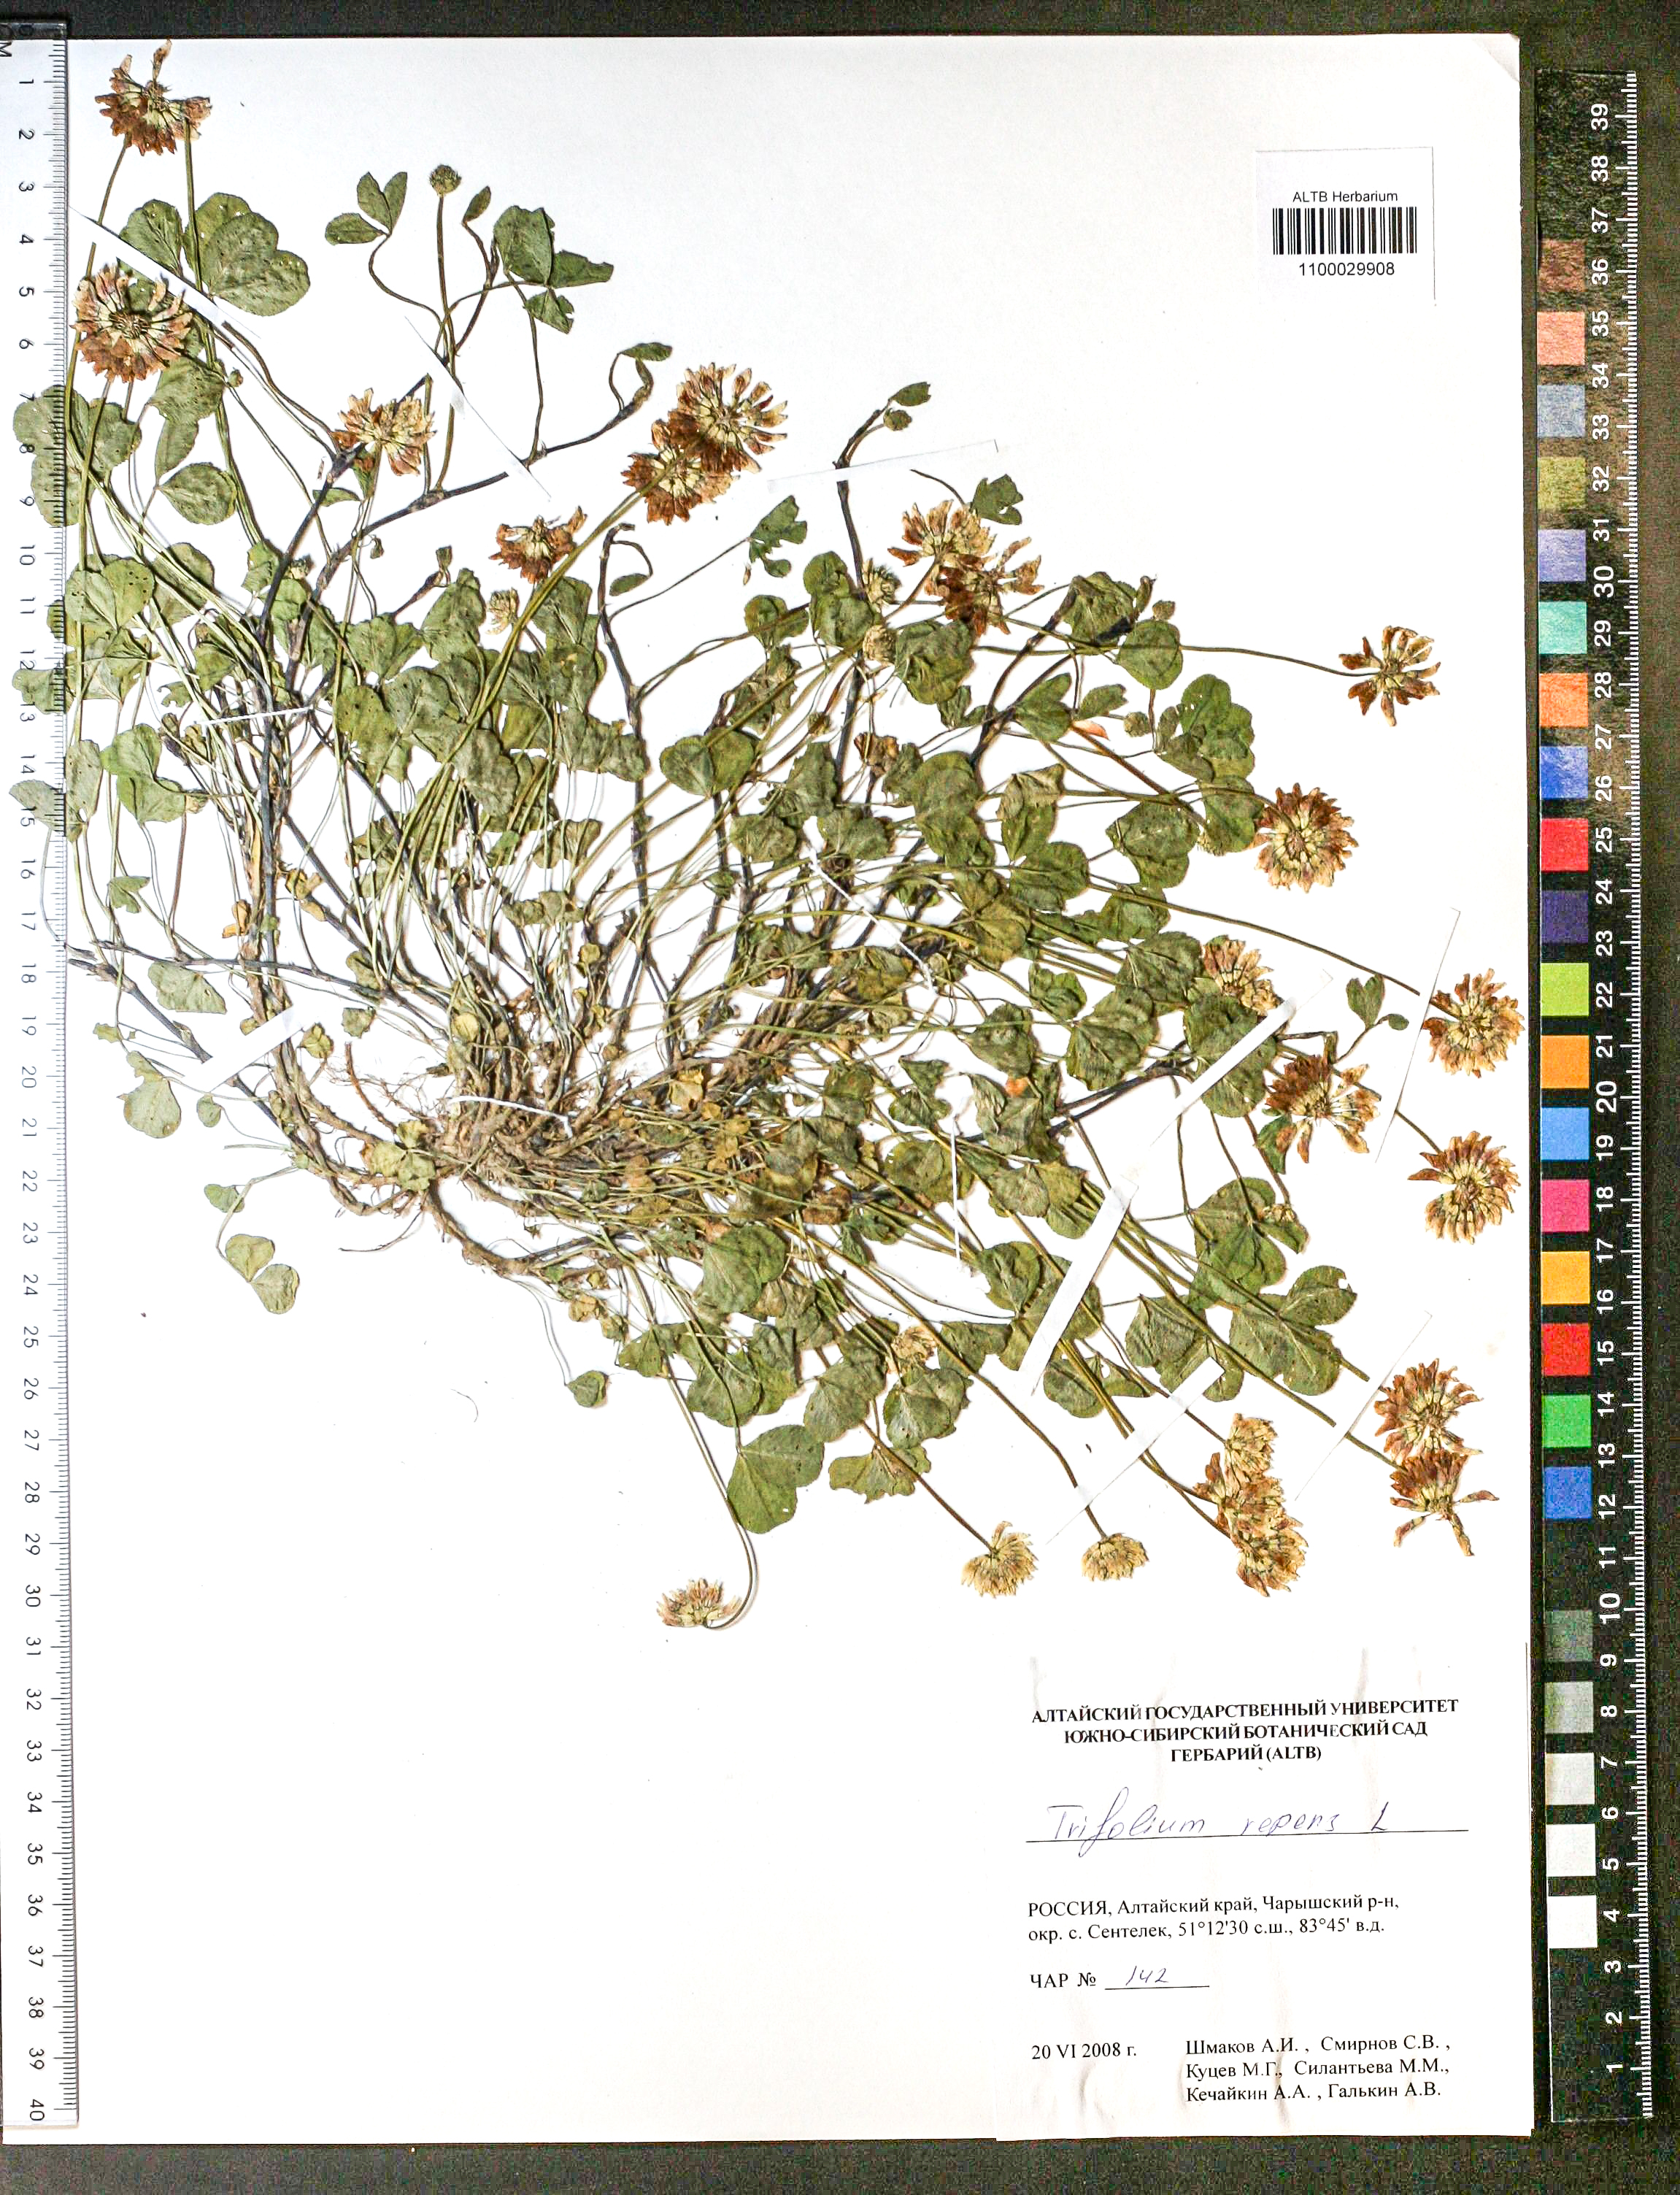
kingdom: Plantae
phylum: Tracheophyta
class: Magnoliopsida
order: Fabales
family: Fabaceae
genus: Trifolium
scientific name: Trifolium repens
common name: White clover
